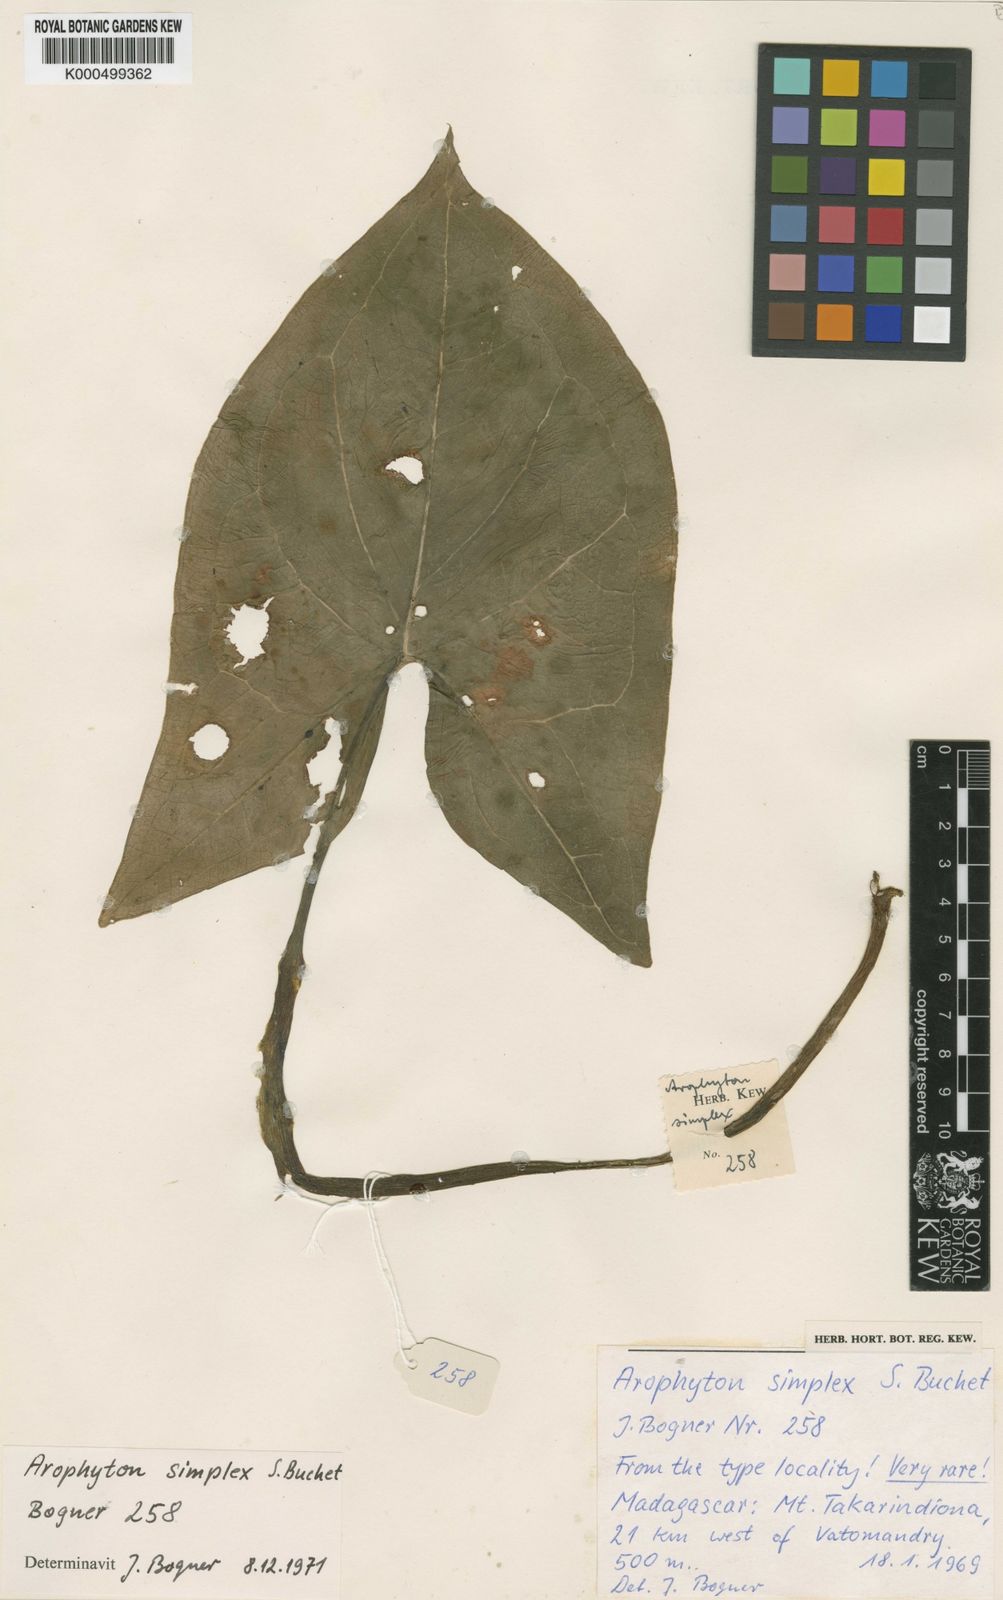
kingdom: Plantae
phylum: Tracheophyta
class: Liliopsida
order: Alismatales
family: Araceae
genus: Arophyton
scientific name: Arophyton simplex
